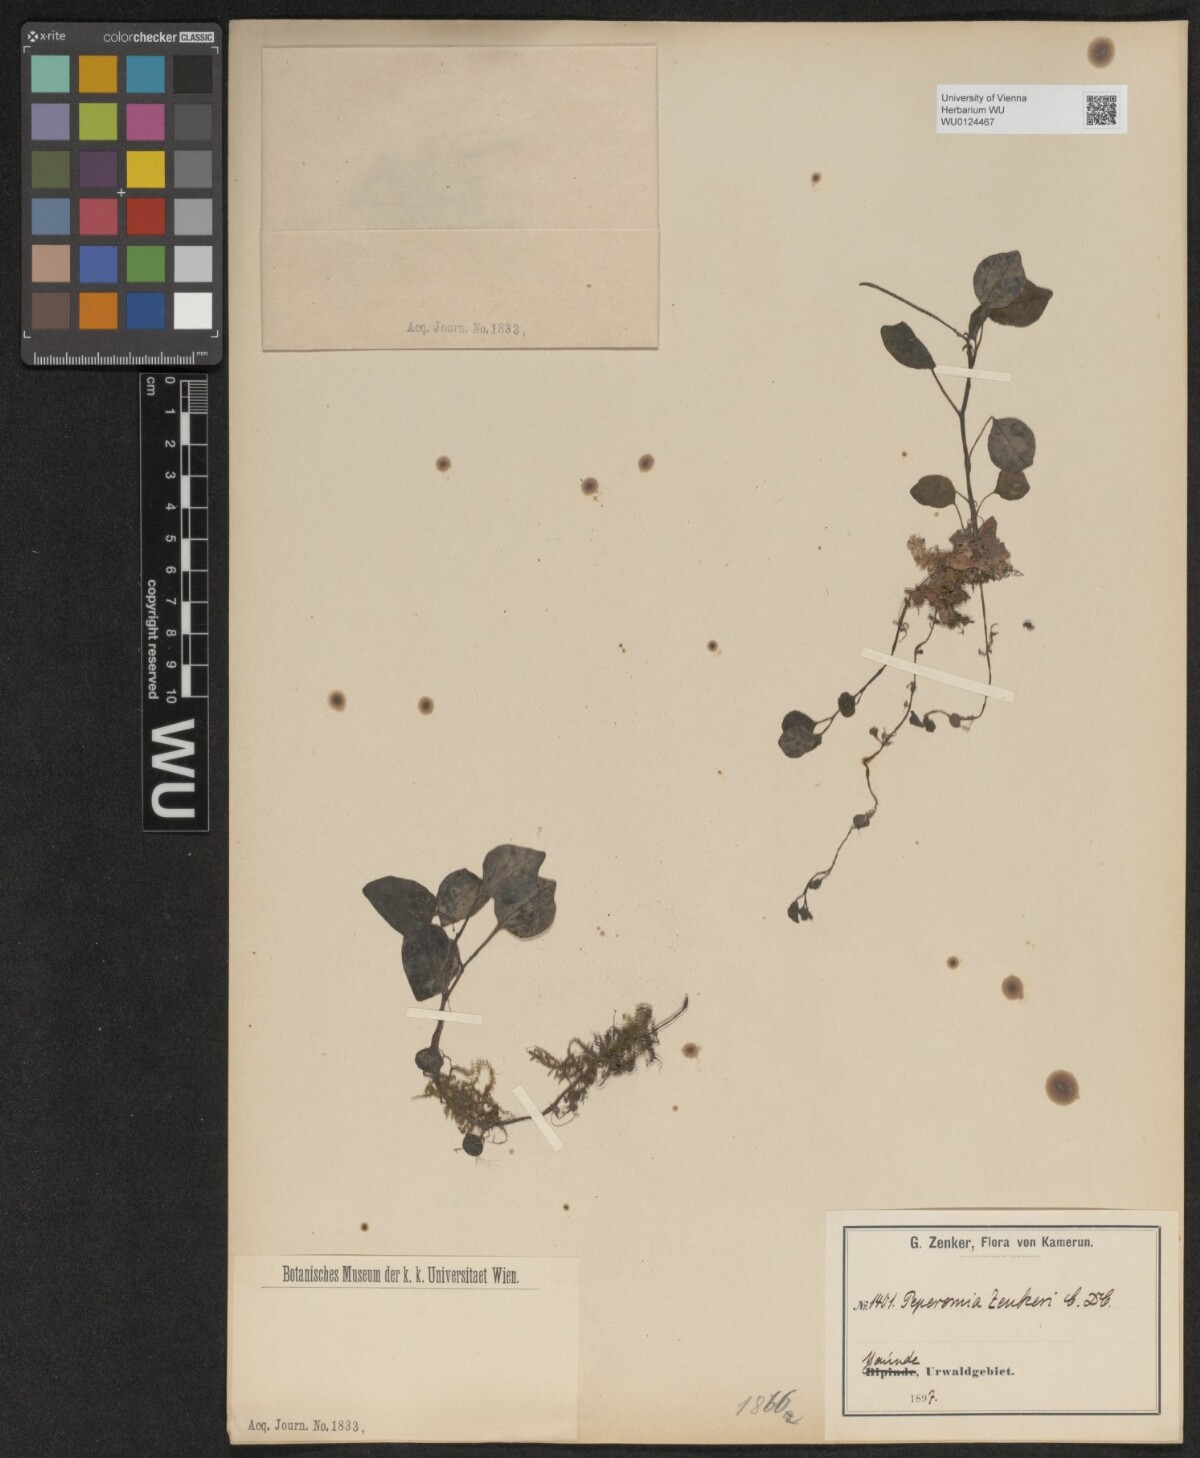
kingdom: Plantae
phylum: Tracheophyta
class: Magnoliopsida
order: Piperales
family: Piperaceae
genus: Peperomia
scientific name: Peperomia molleri
